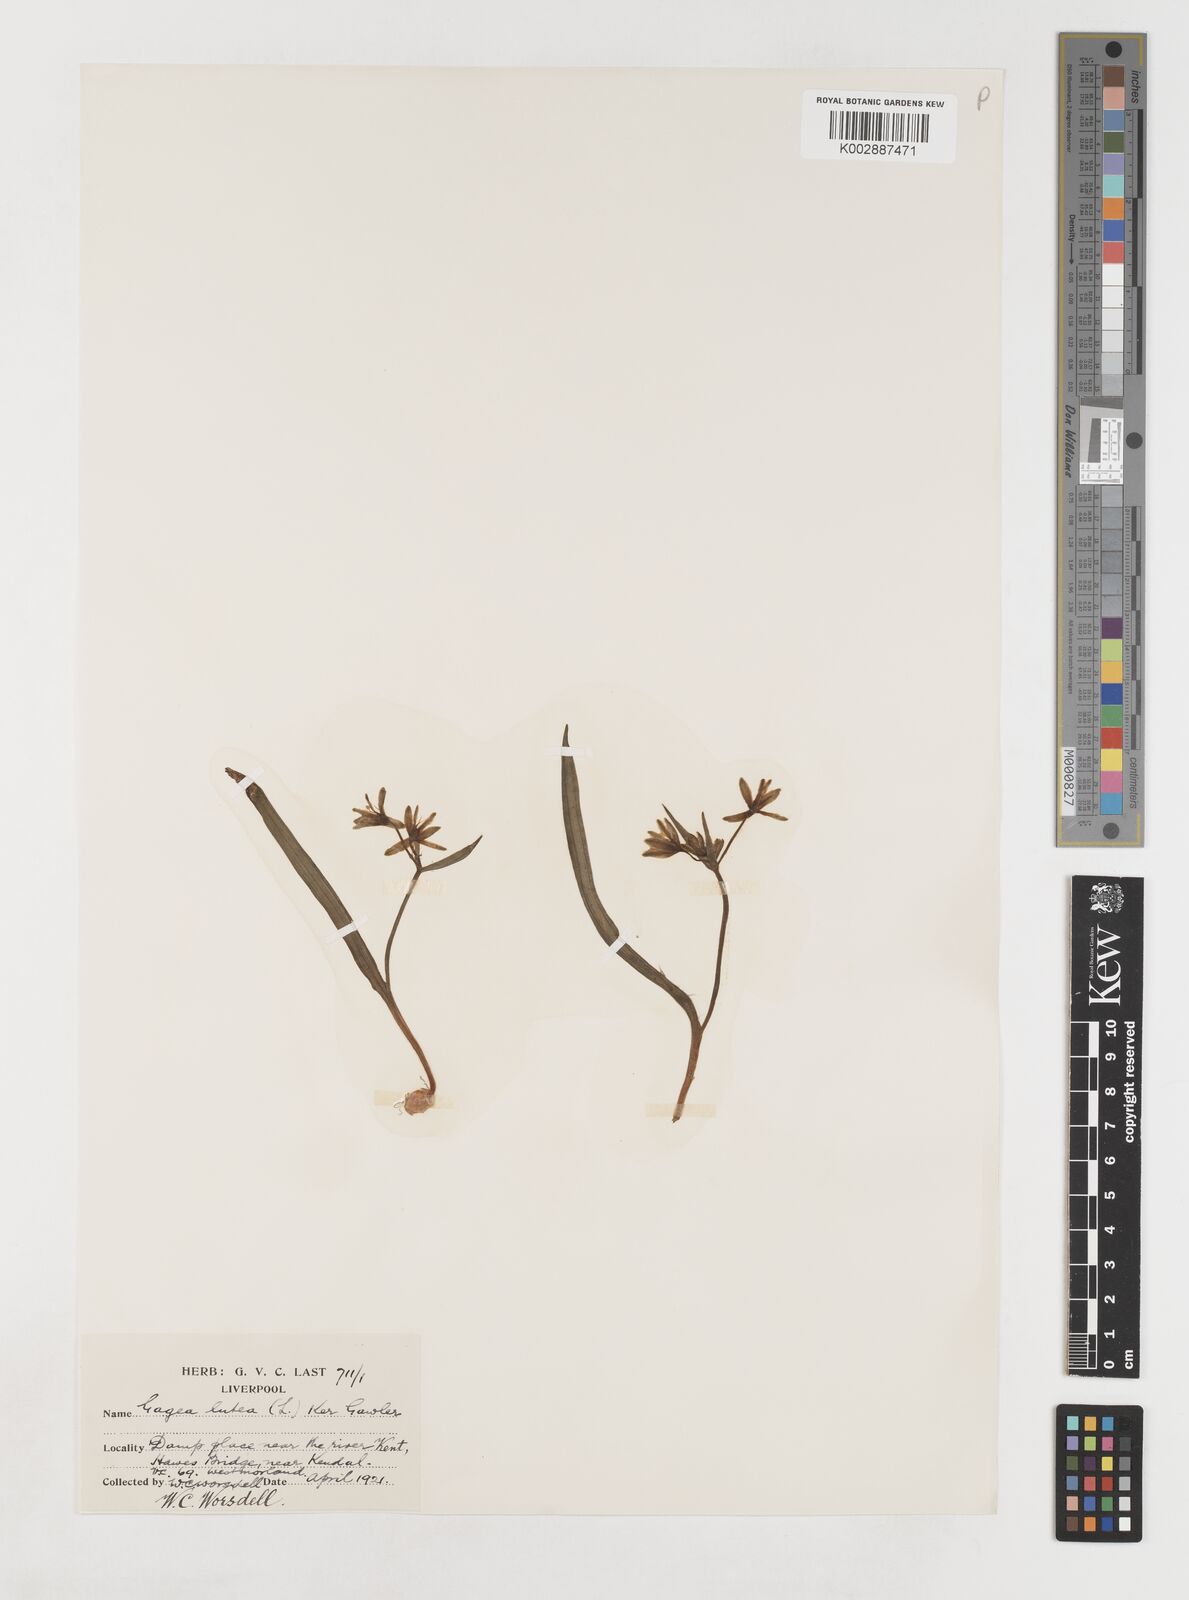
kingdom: Plantae
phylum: Tracheophyta
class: Liliopsida
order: Liliales
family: Liliaceae
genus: Gagea
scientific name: Gagea lutea
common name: Yellow star-of-bethlehem
